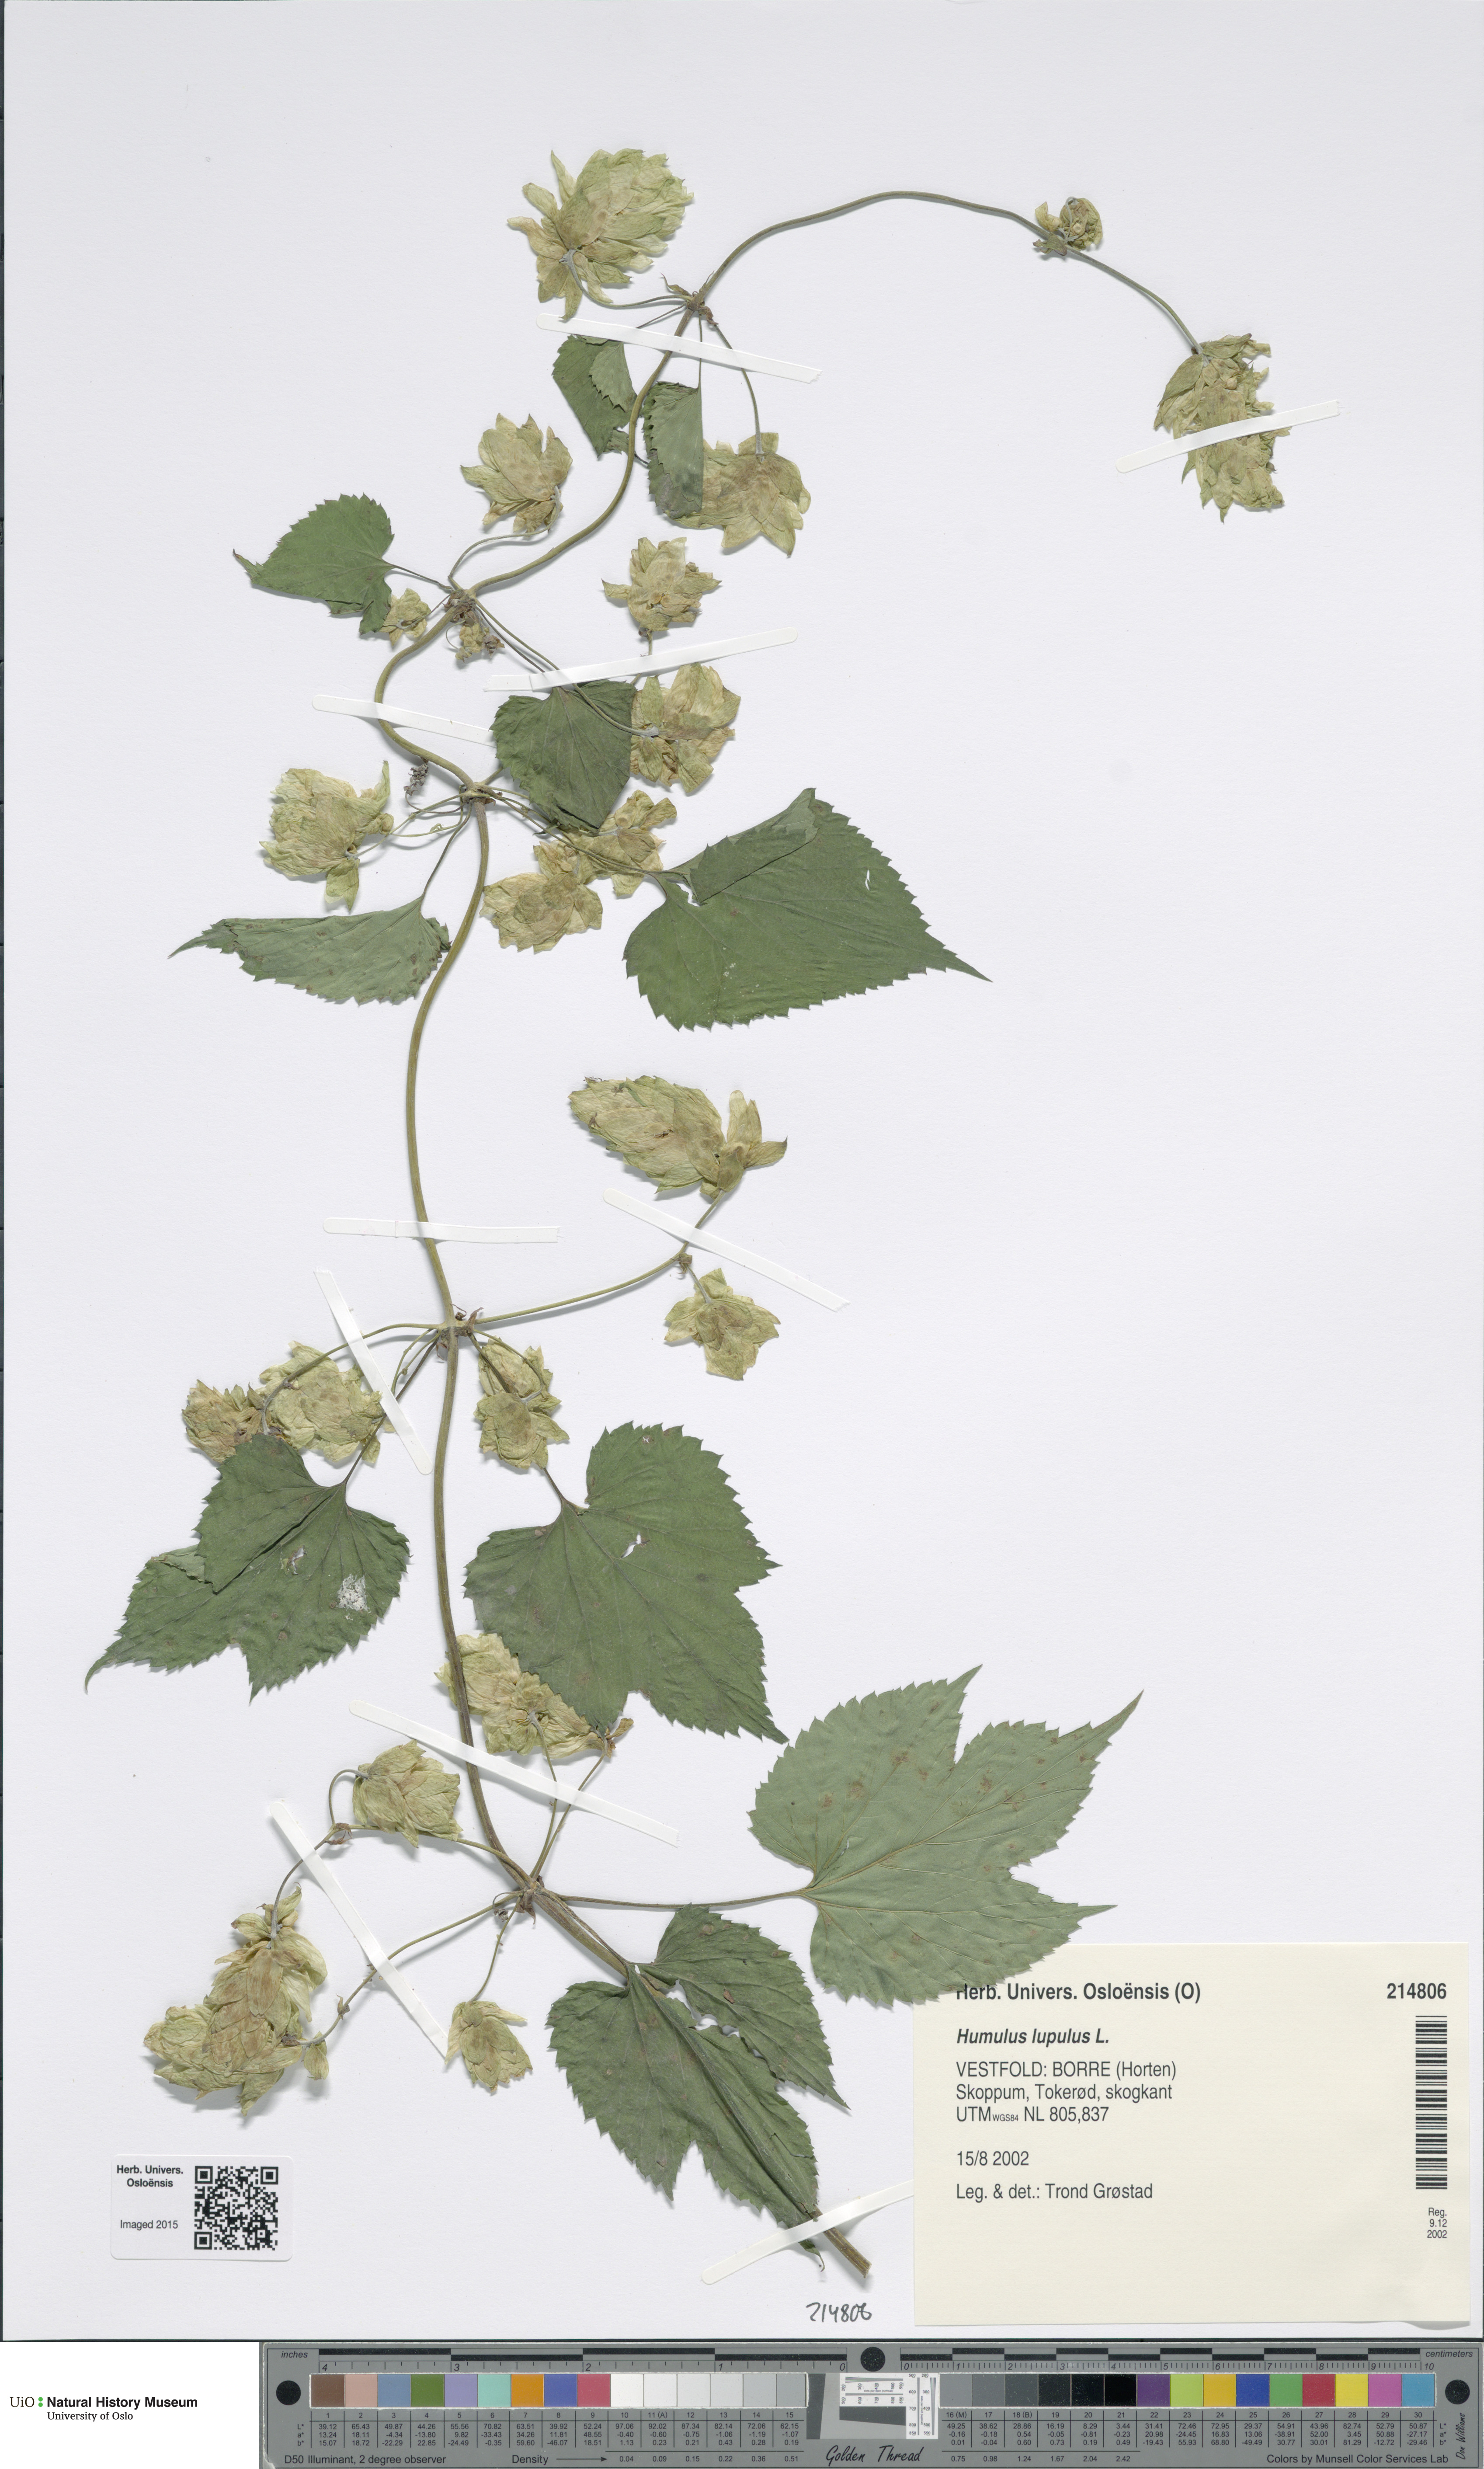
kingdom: Plantae
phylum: Tracheophyta
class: Magnoliopsida
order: Rosales
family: Cannabaceae
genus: Humulus
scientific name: Humulus lupulus
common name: Hop
